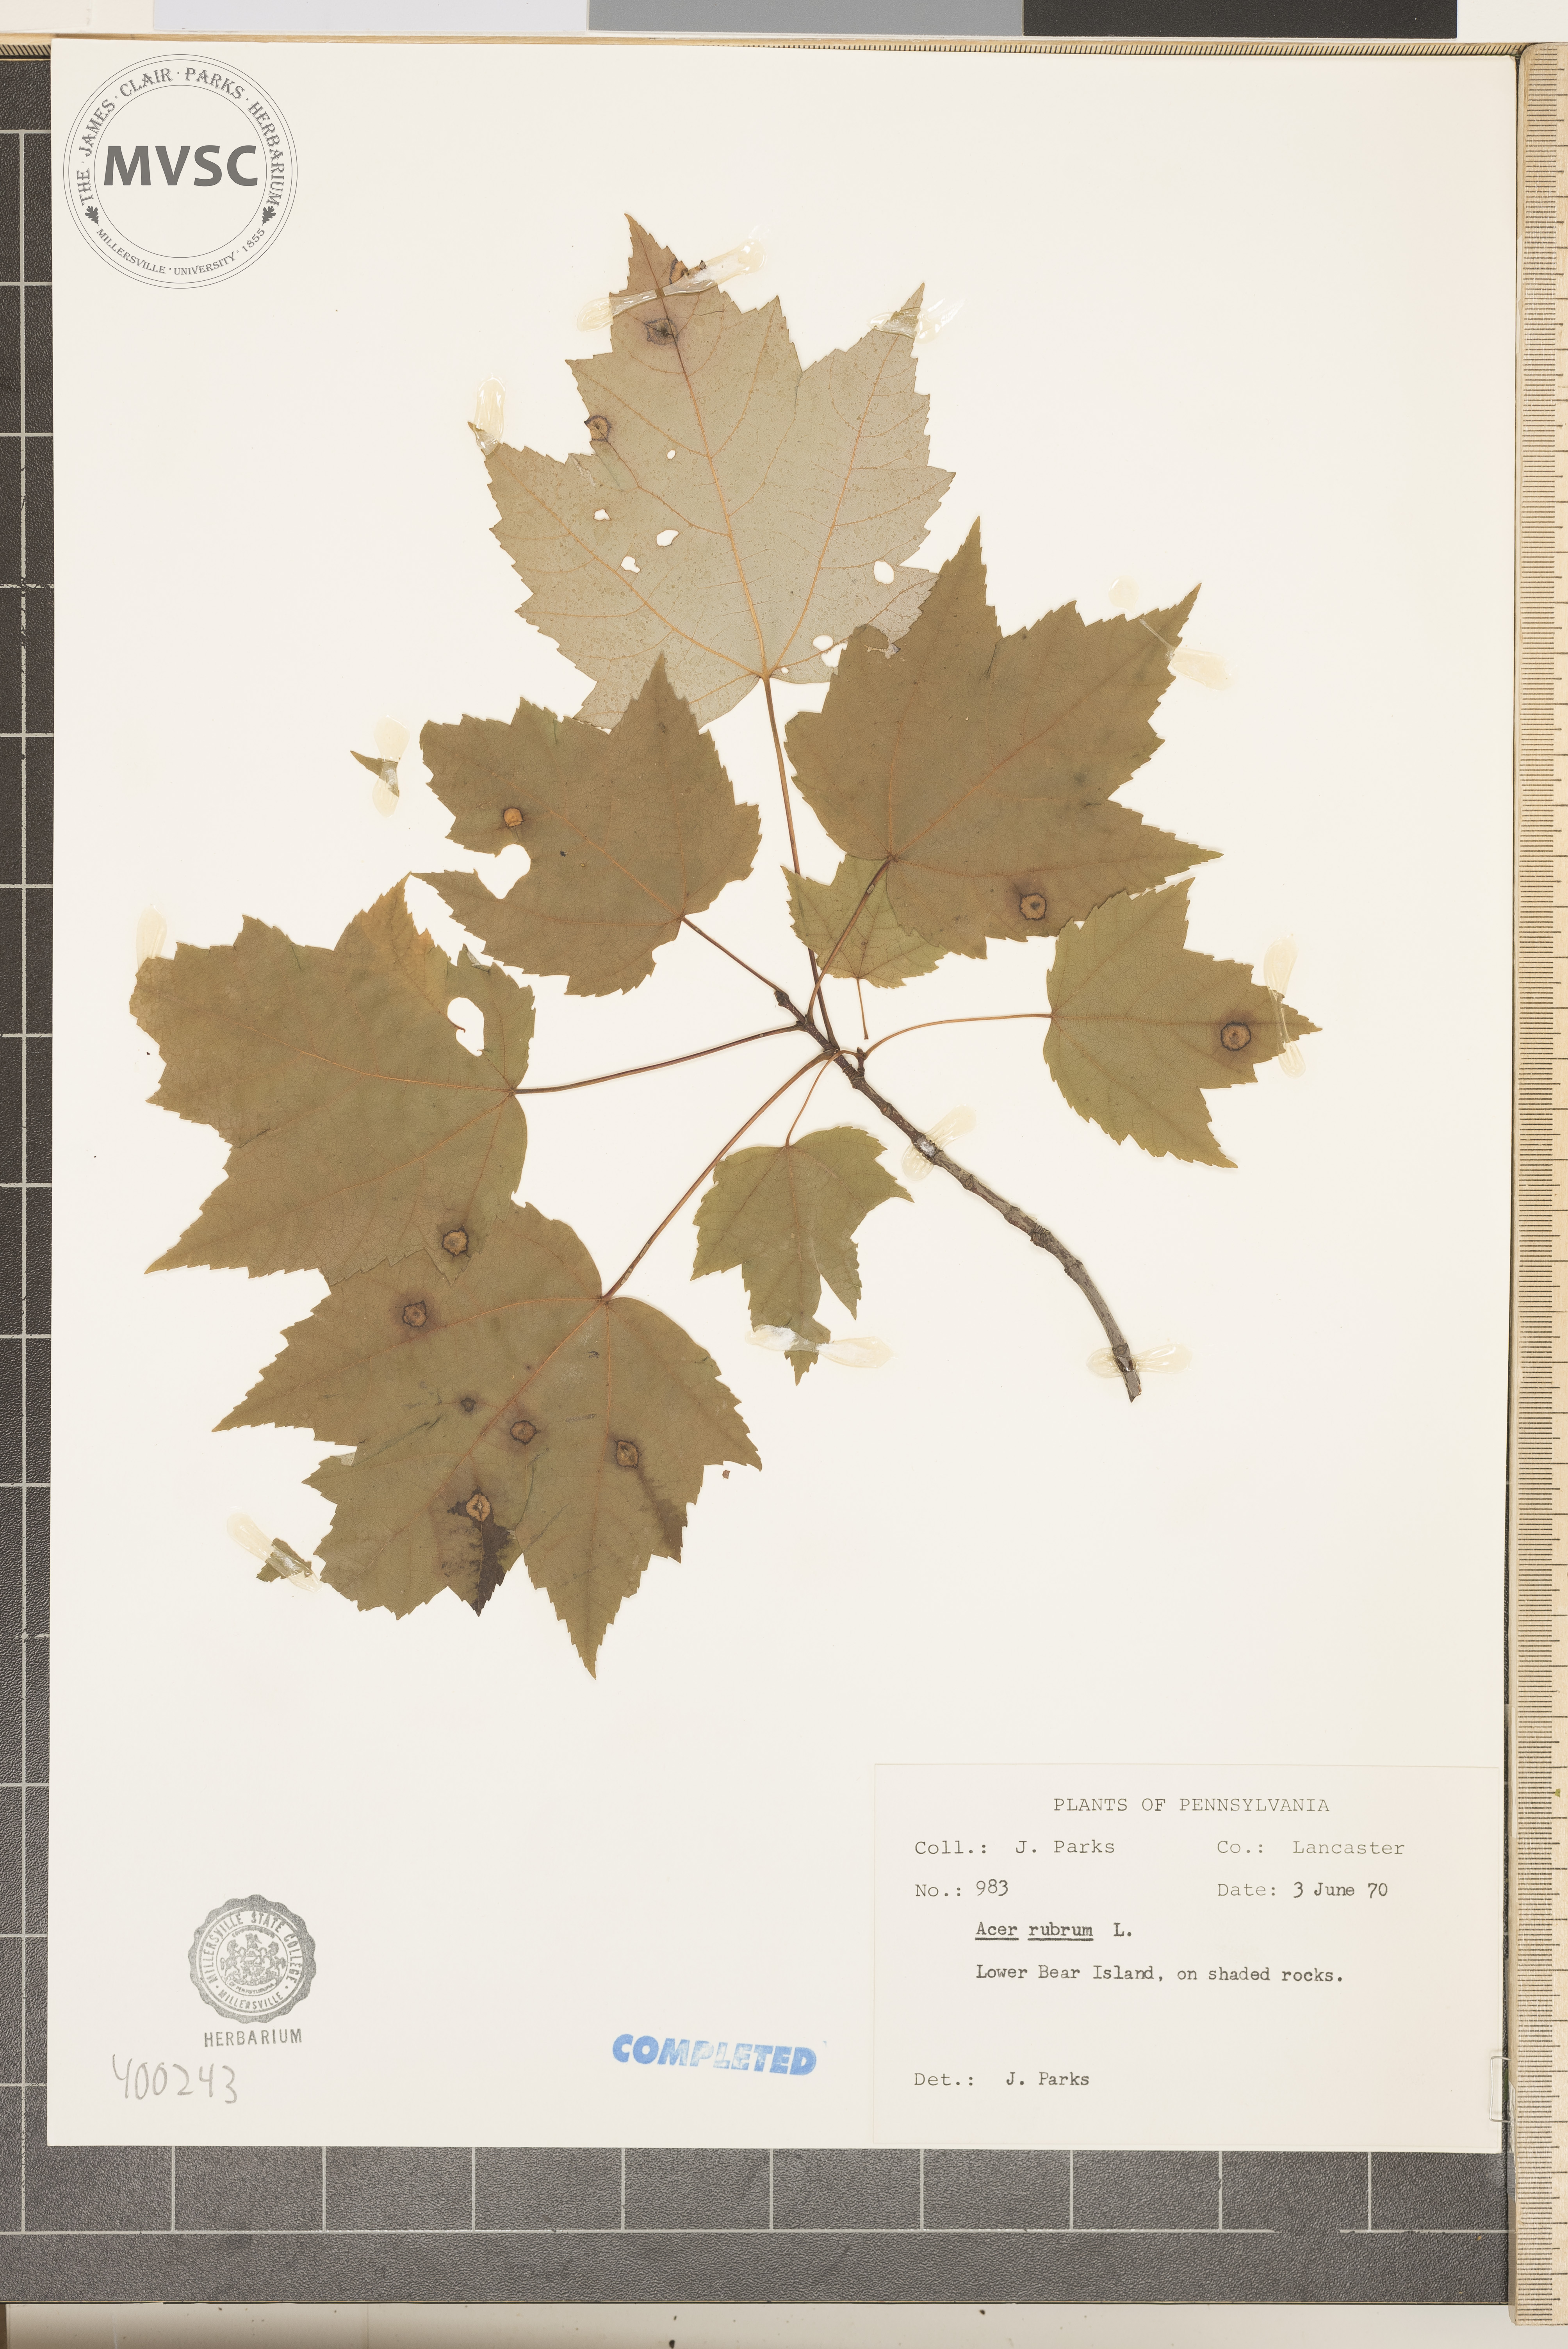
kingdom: Plantae
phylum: Tracheophyta
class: Magnoliopsida
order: Sapindales
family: Sapindaceae
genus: Acer
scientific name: Acer rubrum
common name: red maple
